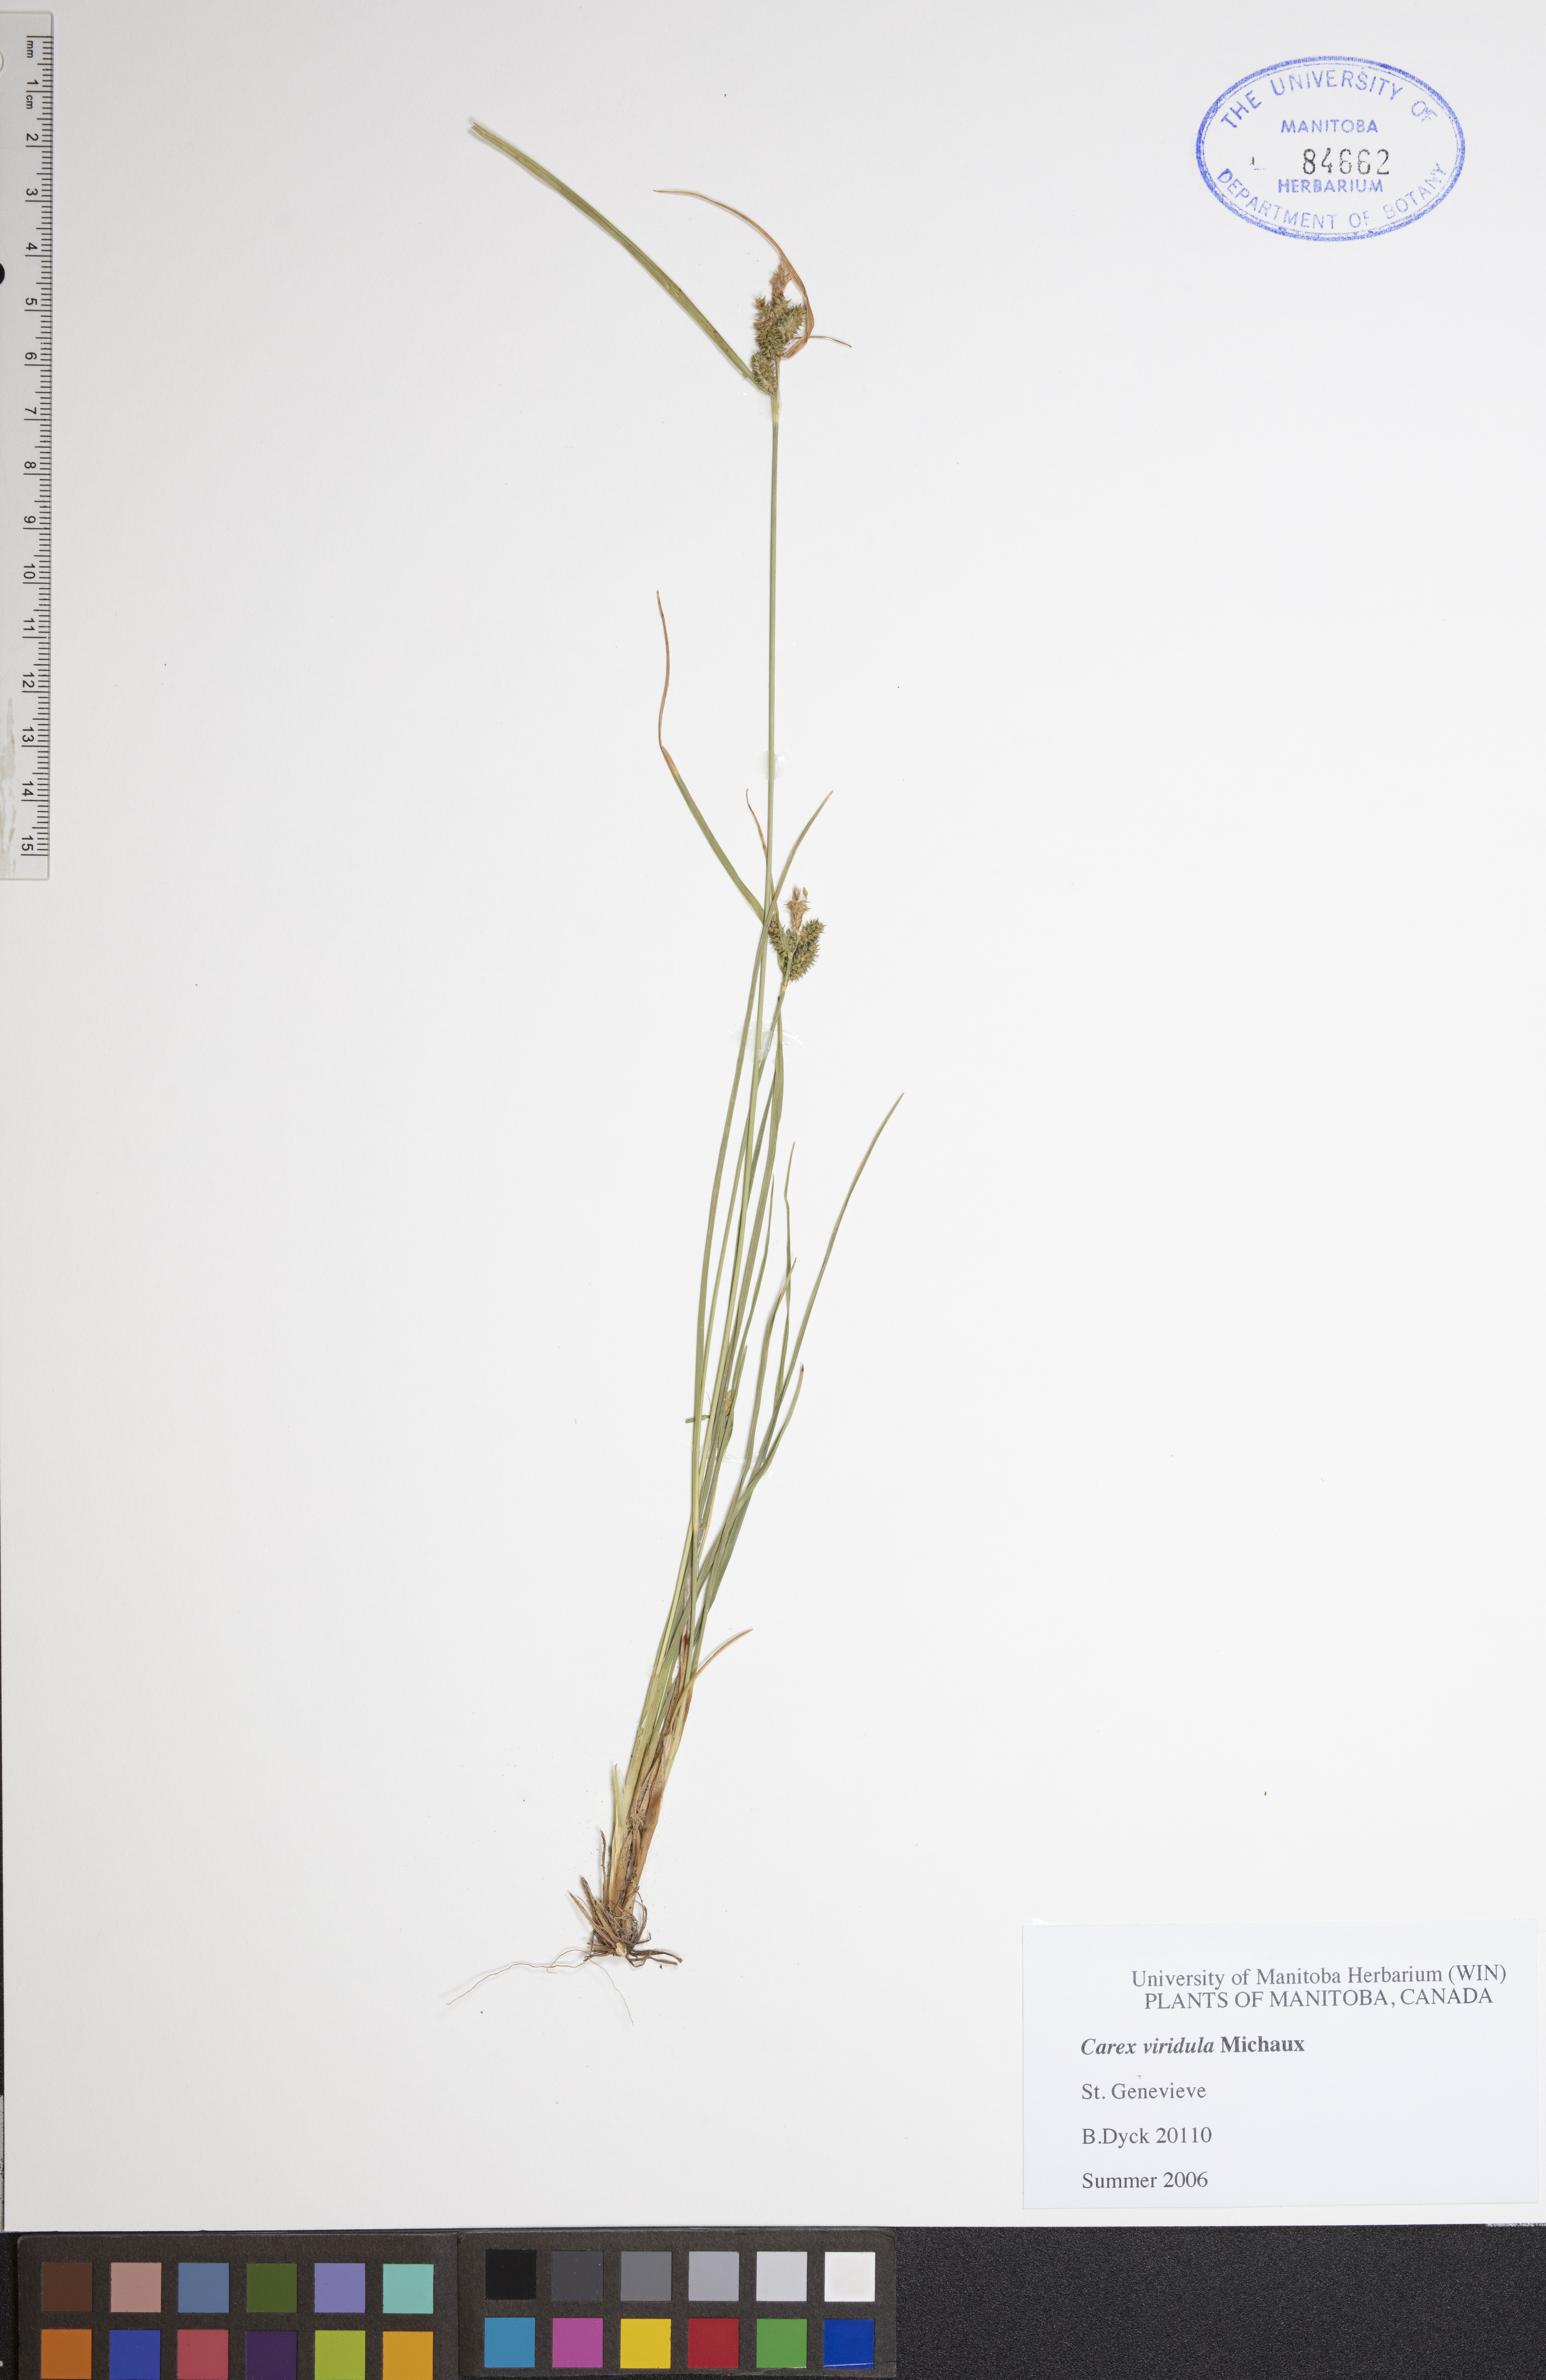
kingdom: Plantae
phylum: Tracheophyta
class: Liliopsida
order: Poales
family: Cyperaceae
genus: Carex
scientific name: Carex oederi
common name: Common & small-fruited yellow-sedge
